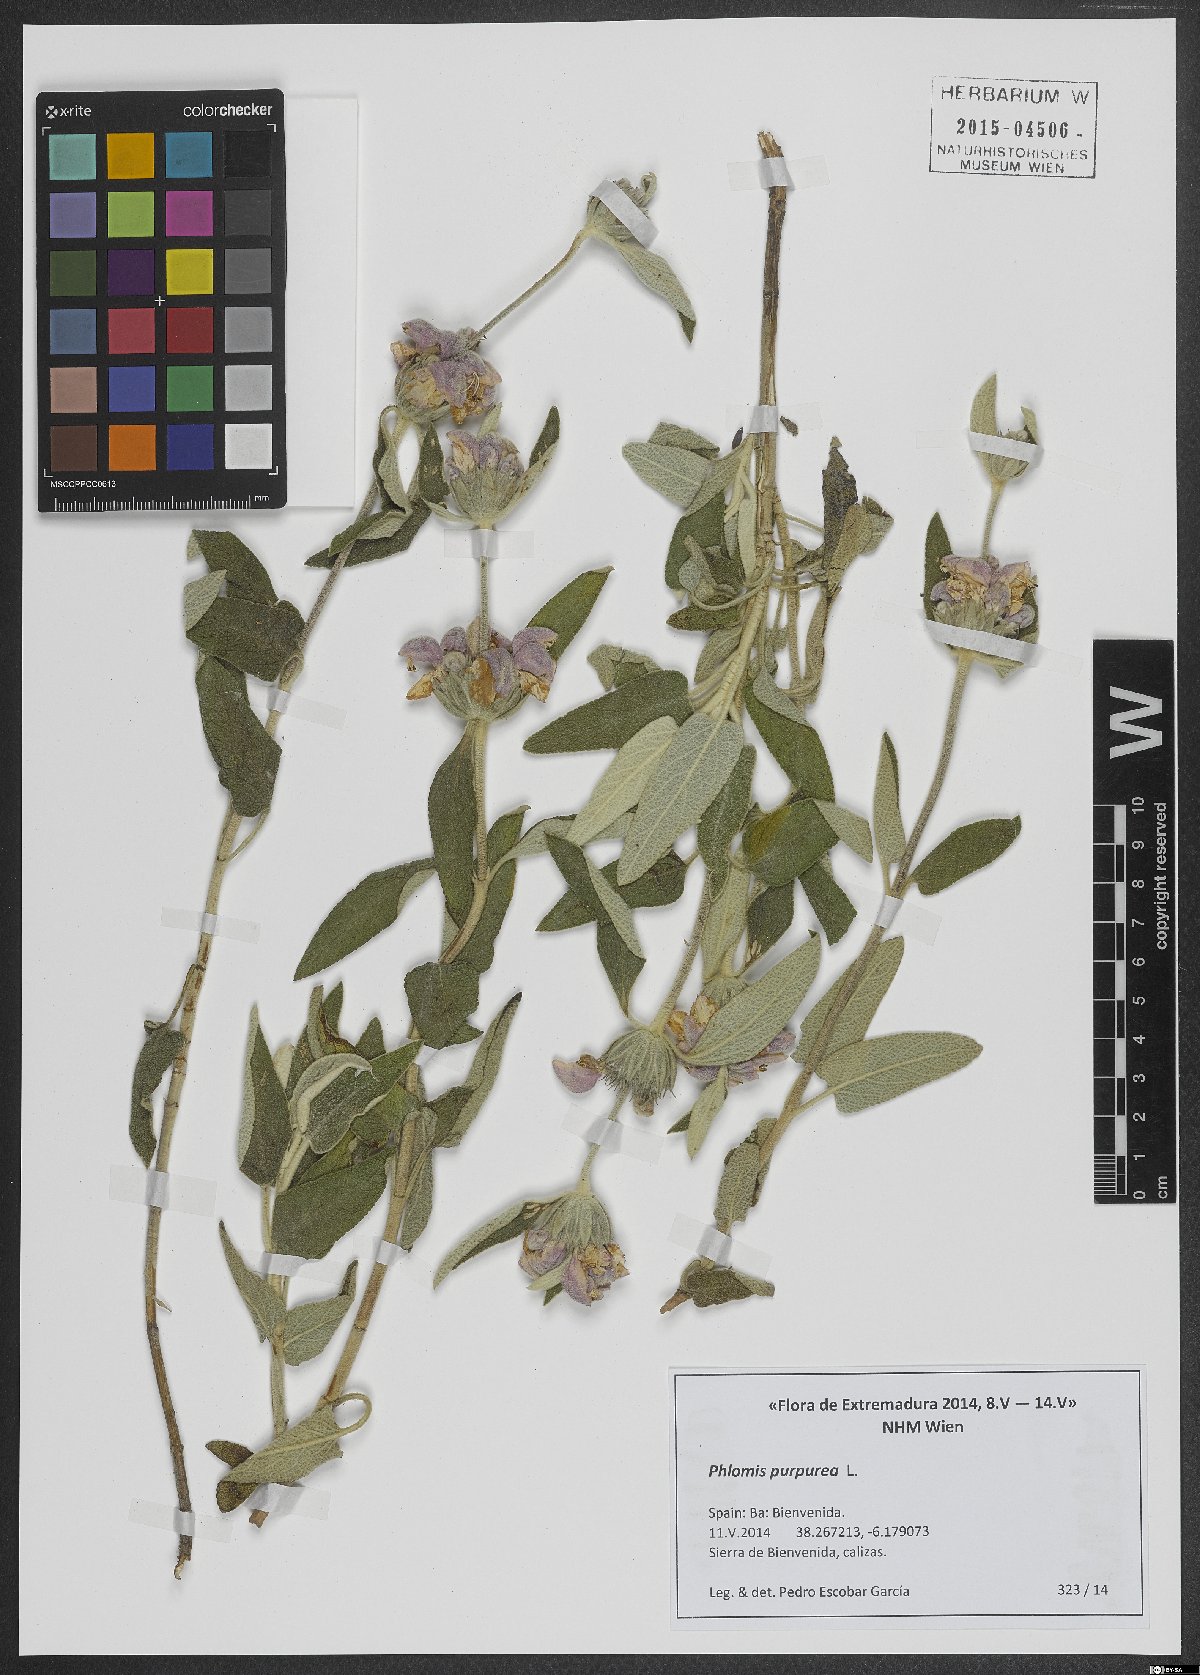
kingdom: Plantae
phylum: Tracheophyta
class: Magnoliopsida
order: Lamiales
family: Lamiaceae
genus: Phlomis
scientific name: Phlomis purpurea
